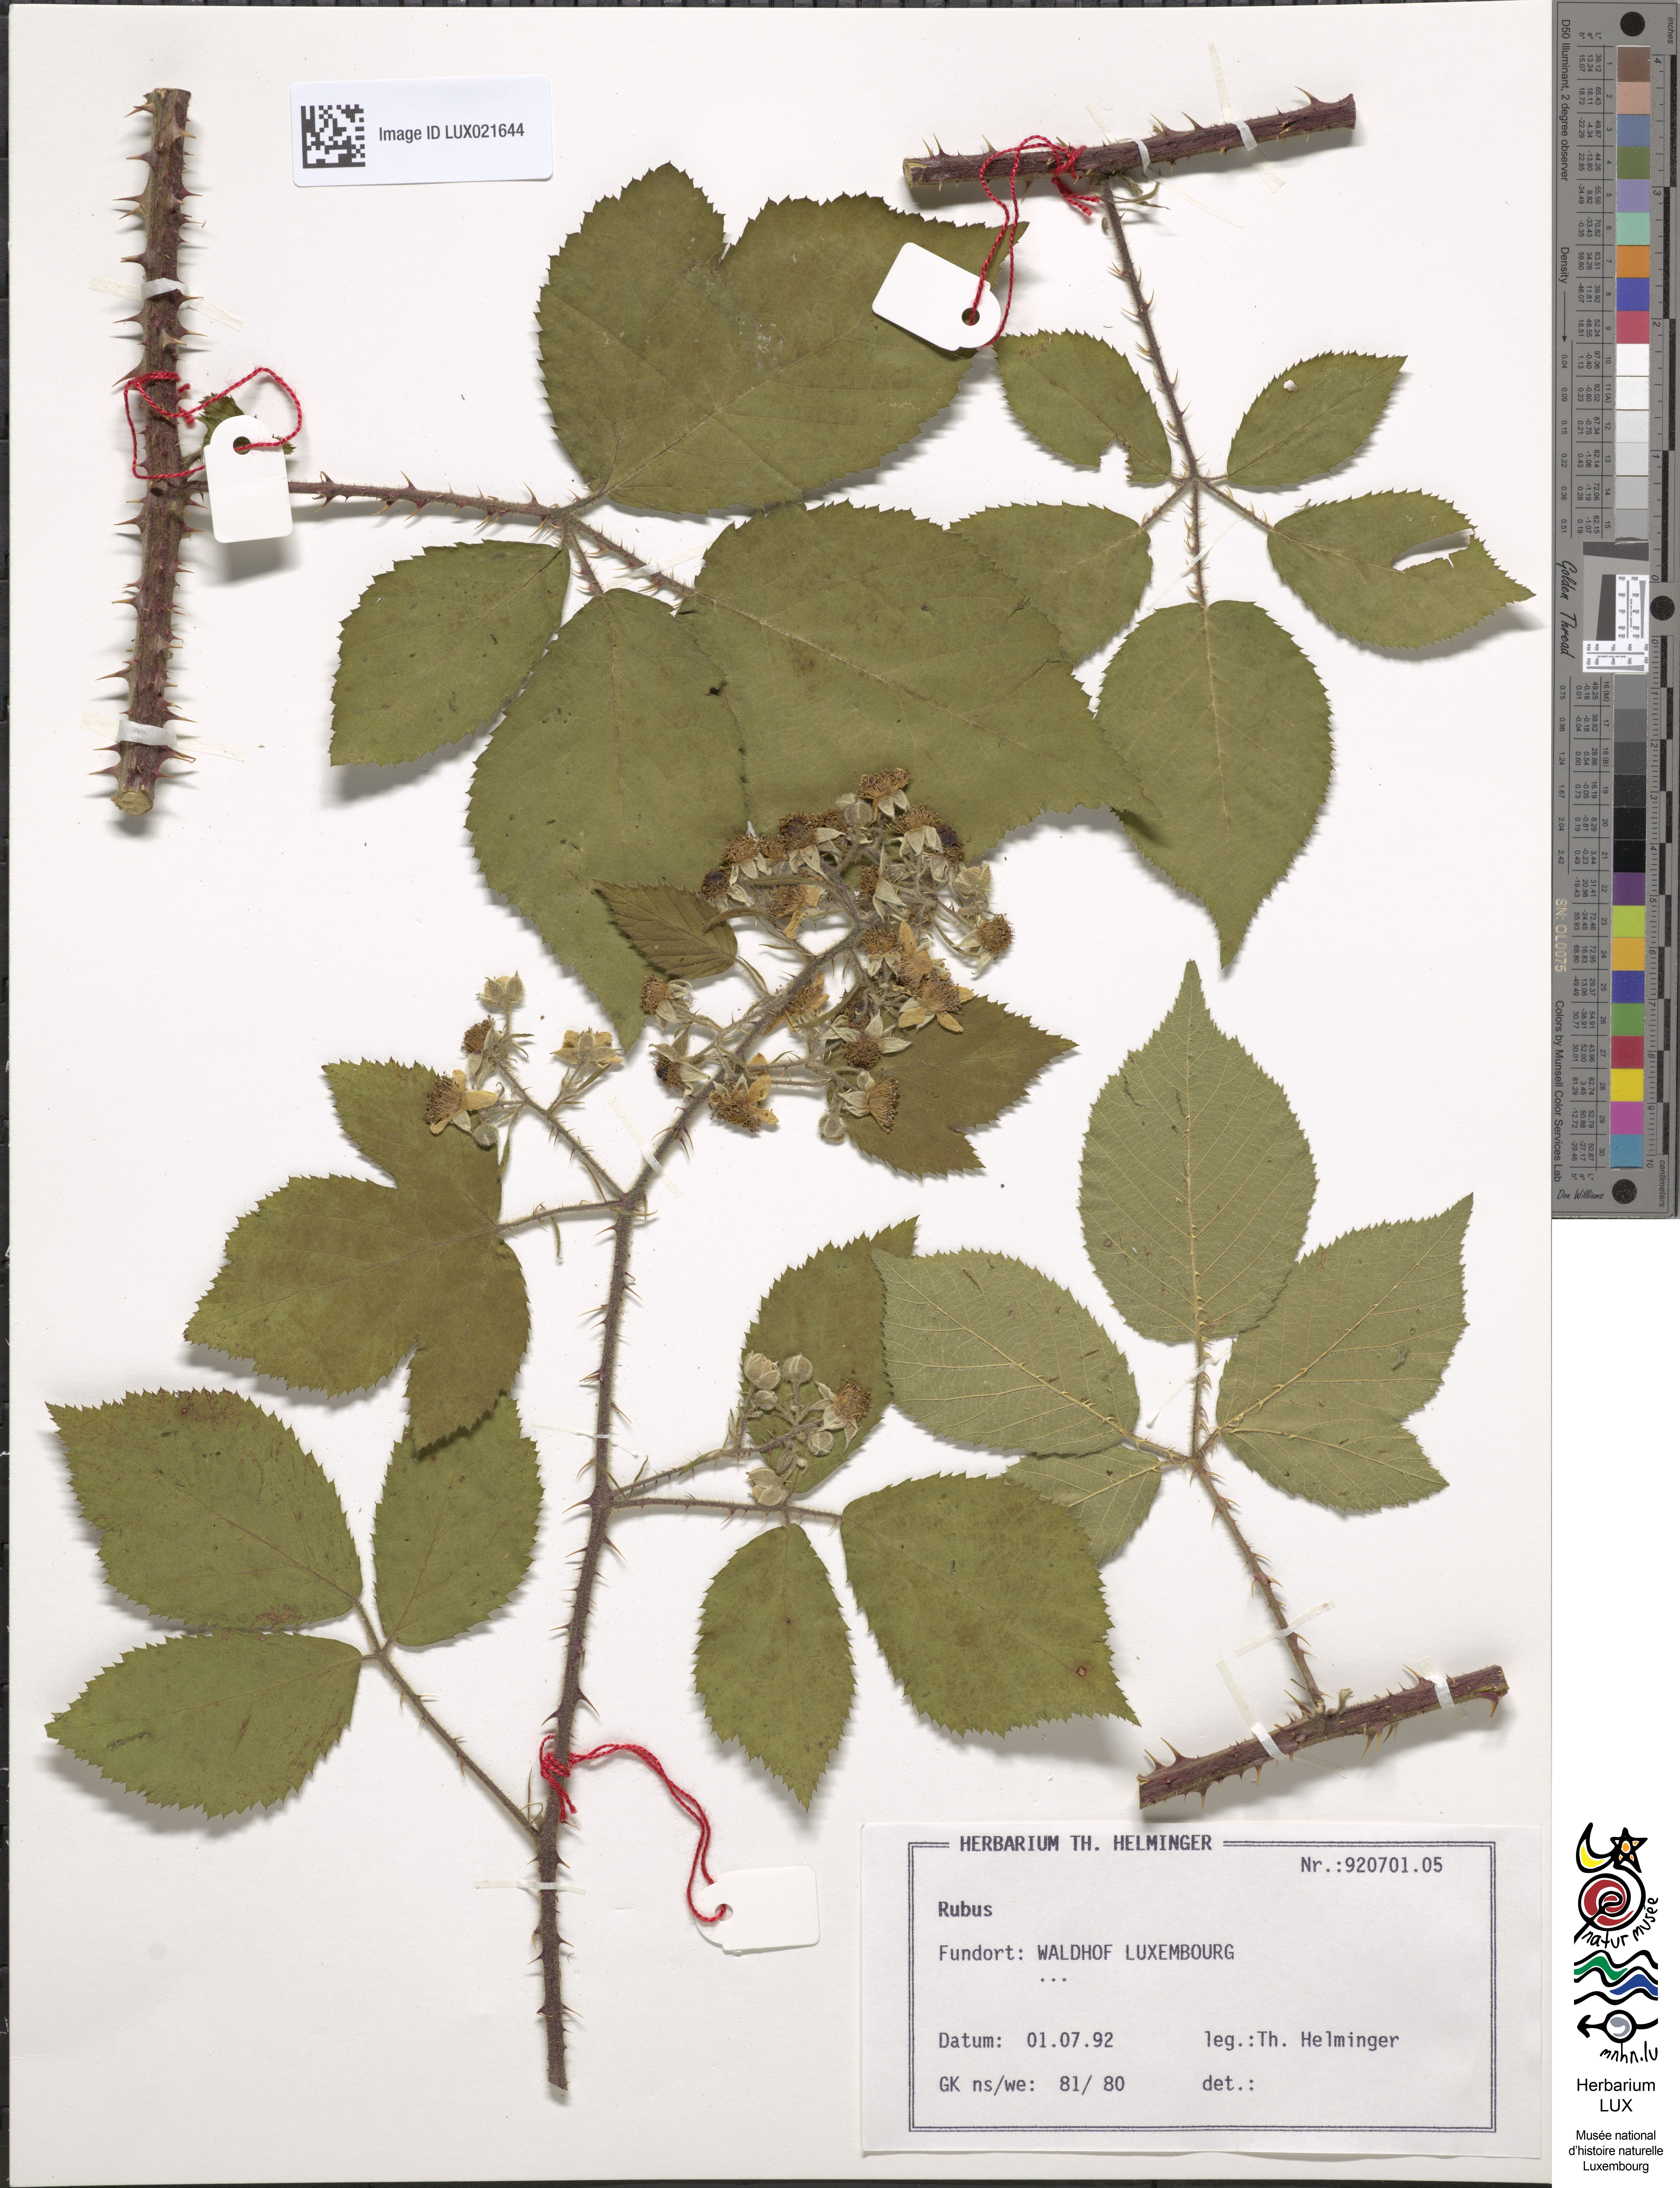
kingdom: Plantae
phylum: Tracheophyta
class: Magnoliopsida
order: Rosales
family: Rosaceae
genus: Rubus
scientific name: Rubus
